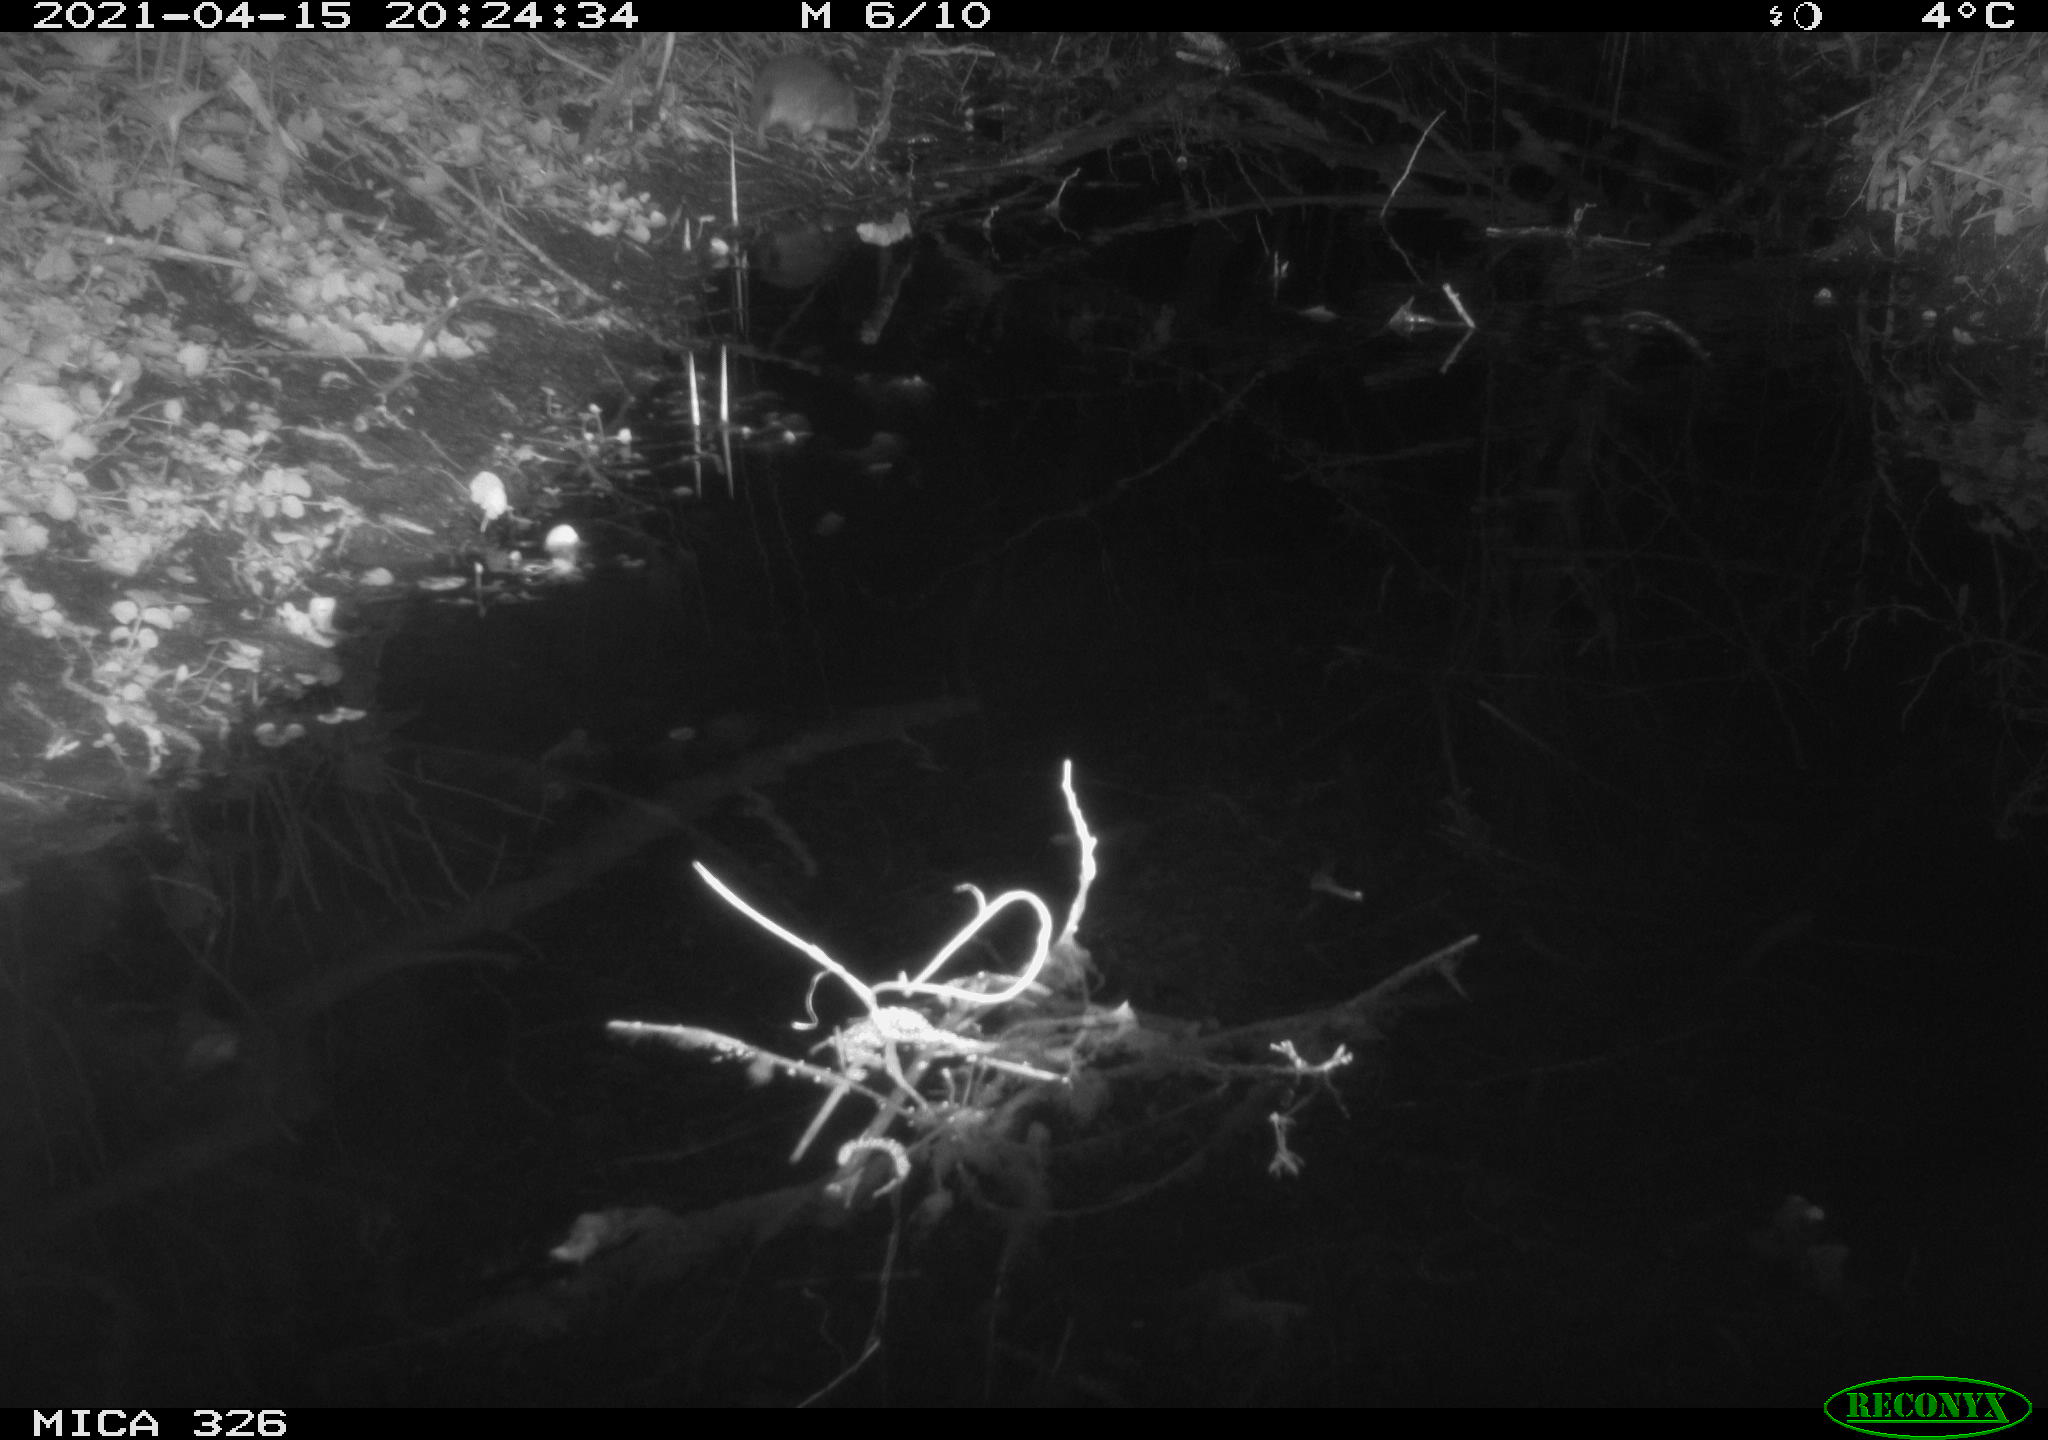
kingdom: Animalia
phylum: Chordata
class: Mammalia
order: Rodentia
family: Muridae
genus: Rattus
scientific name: Rattus norvegicus
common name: Brown rat
